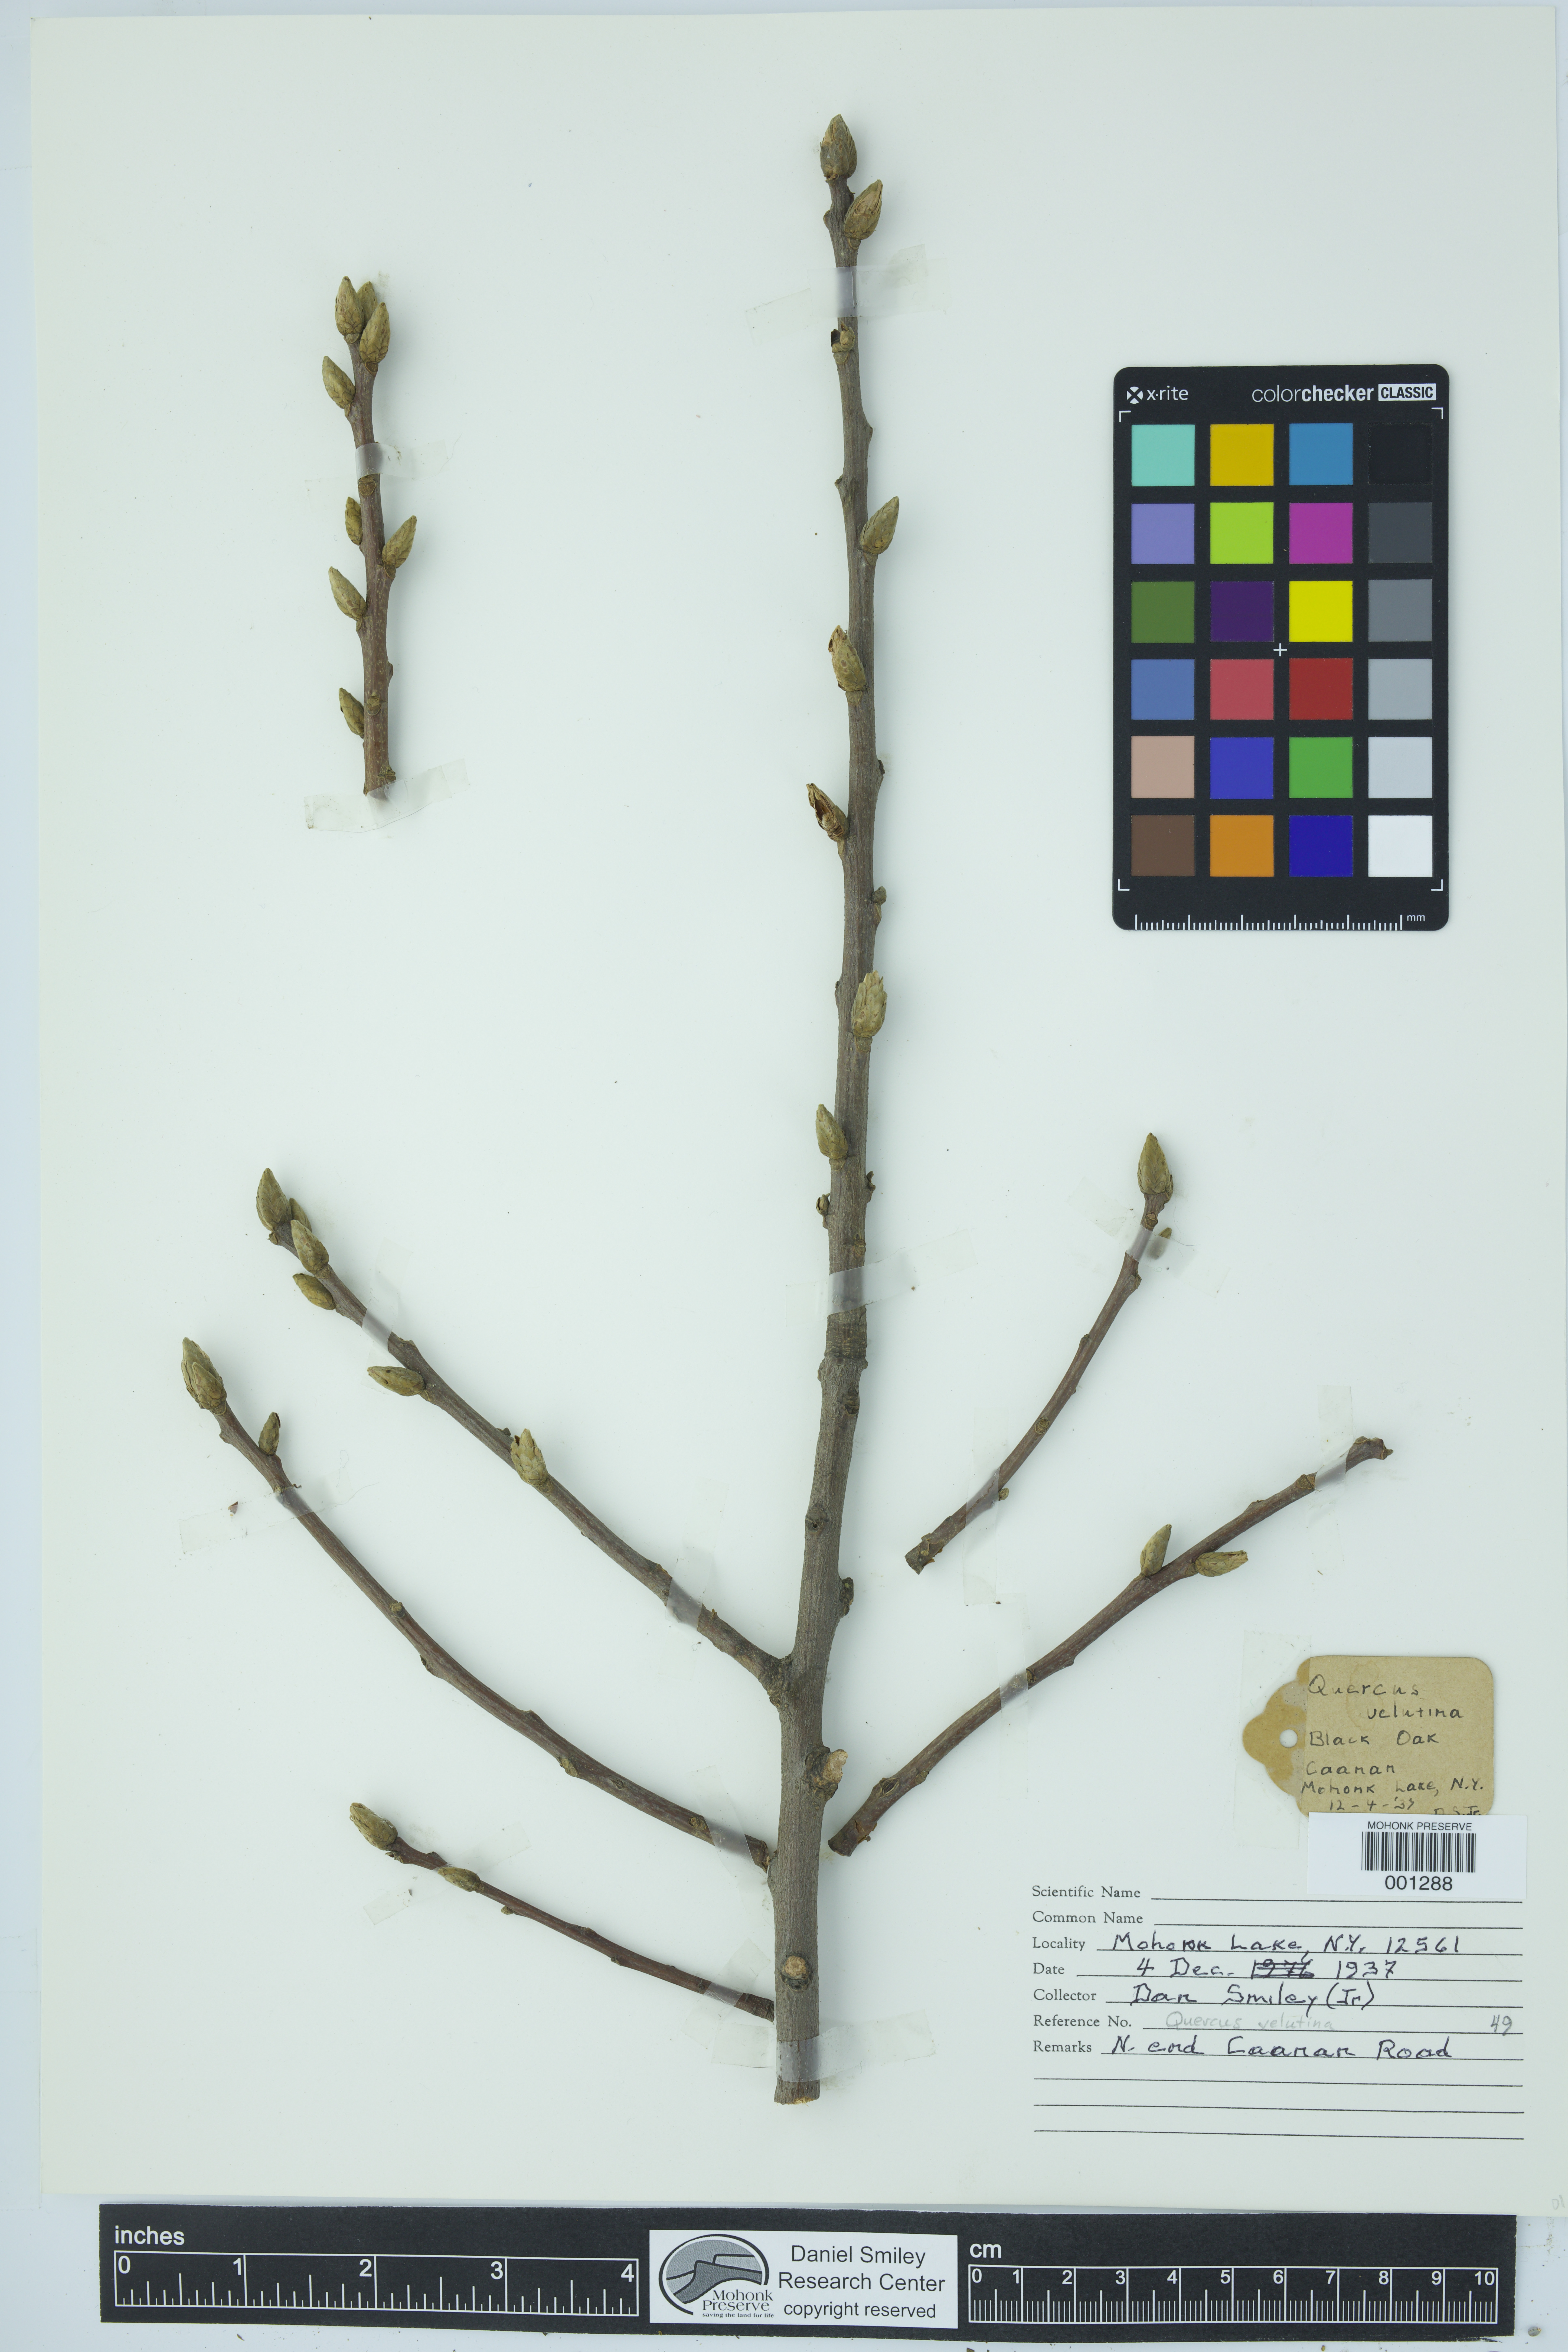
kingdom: Plantae
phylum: Tracheophyta
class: Magnoliopsida
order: Fagales
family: Fagaceae
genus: Quercus
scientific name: Quercus velutina
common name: Black oak
